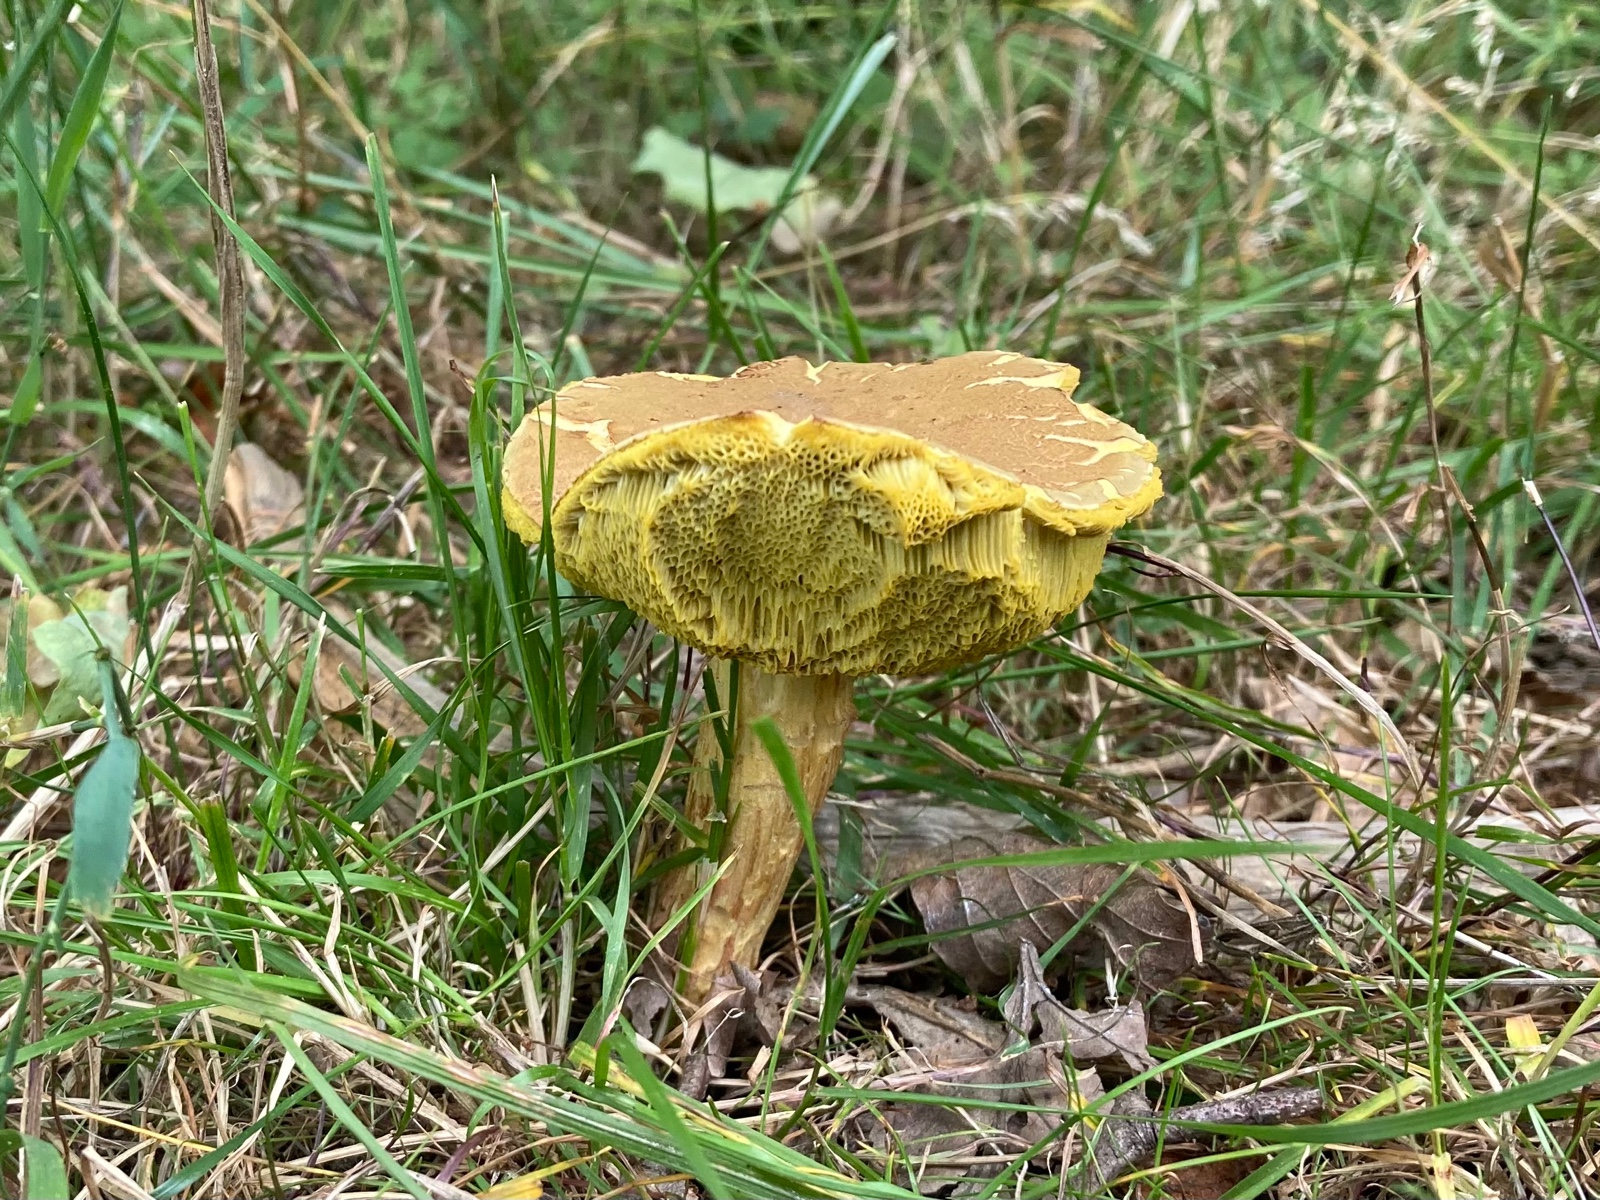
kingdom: Fungi
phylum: Basidiomycota
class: Agaricomycetes
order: Boletales
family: Boletaceae
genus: Xerocomus
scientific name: Xerocomus subtomentosus
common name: filtet rørhat
